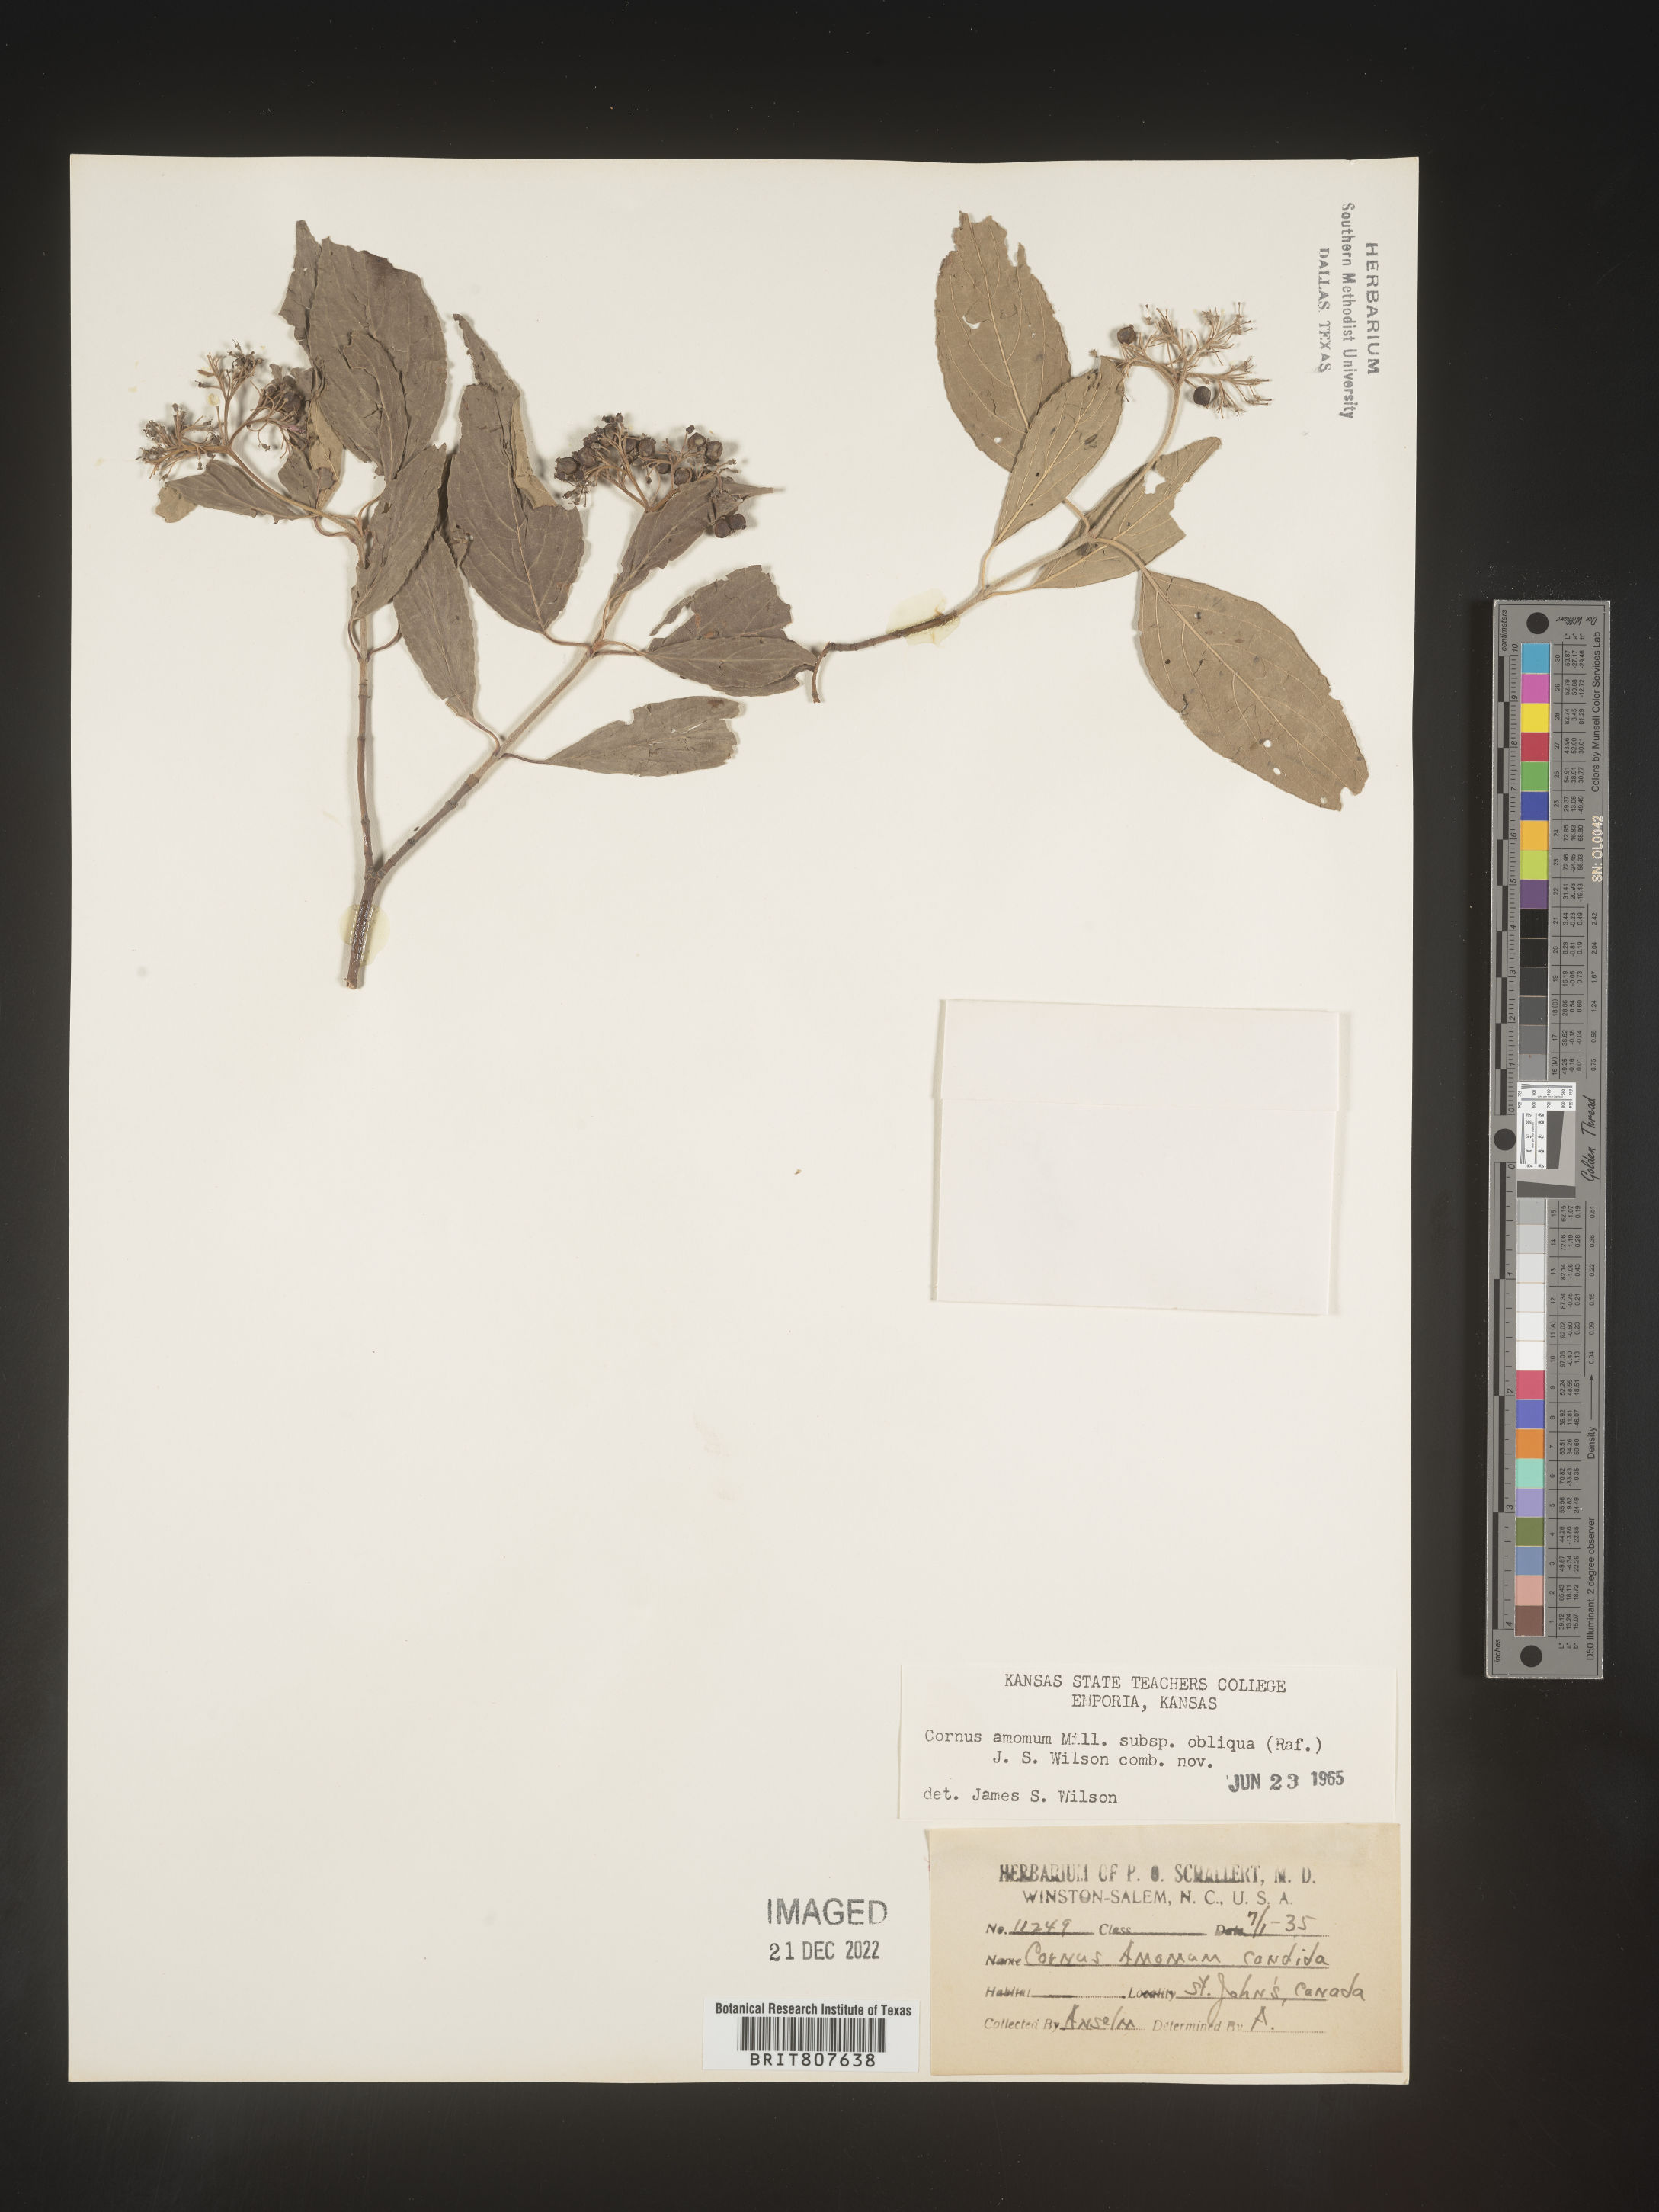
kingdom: Plantae
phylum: Tracheophyta
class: Magnoliopsida
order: Cornales
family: Cornaceae
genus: Cornus
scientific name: Cornus obliqua
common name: Pale dogwood
